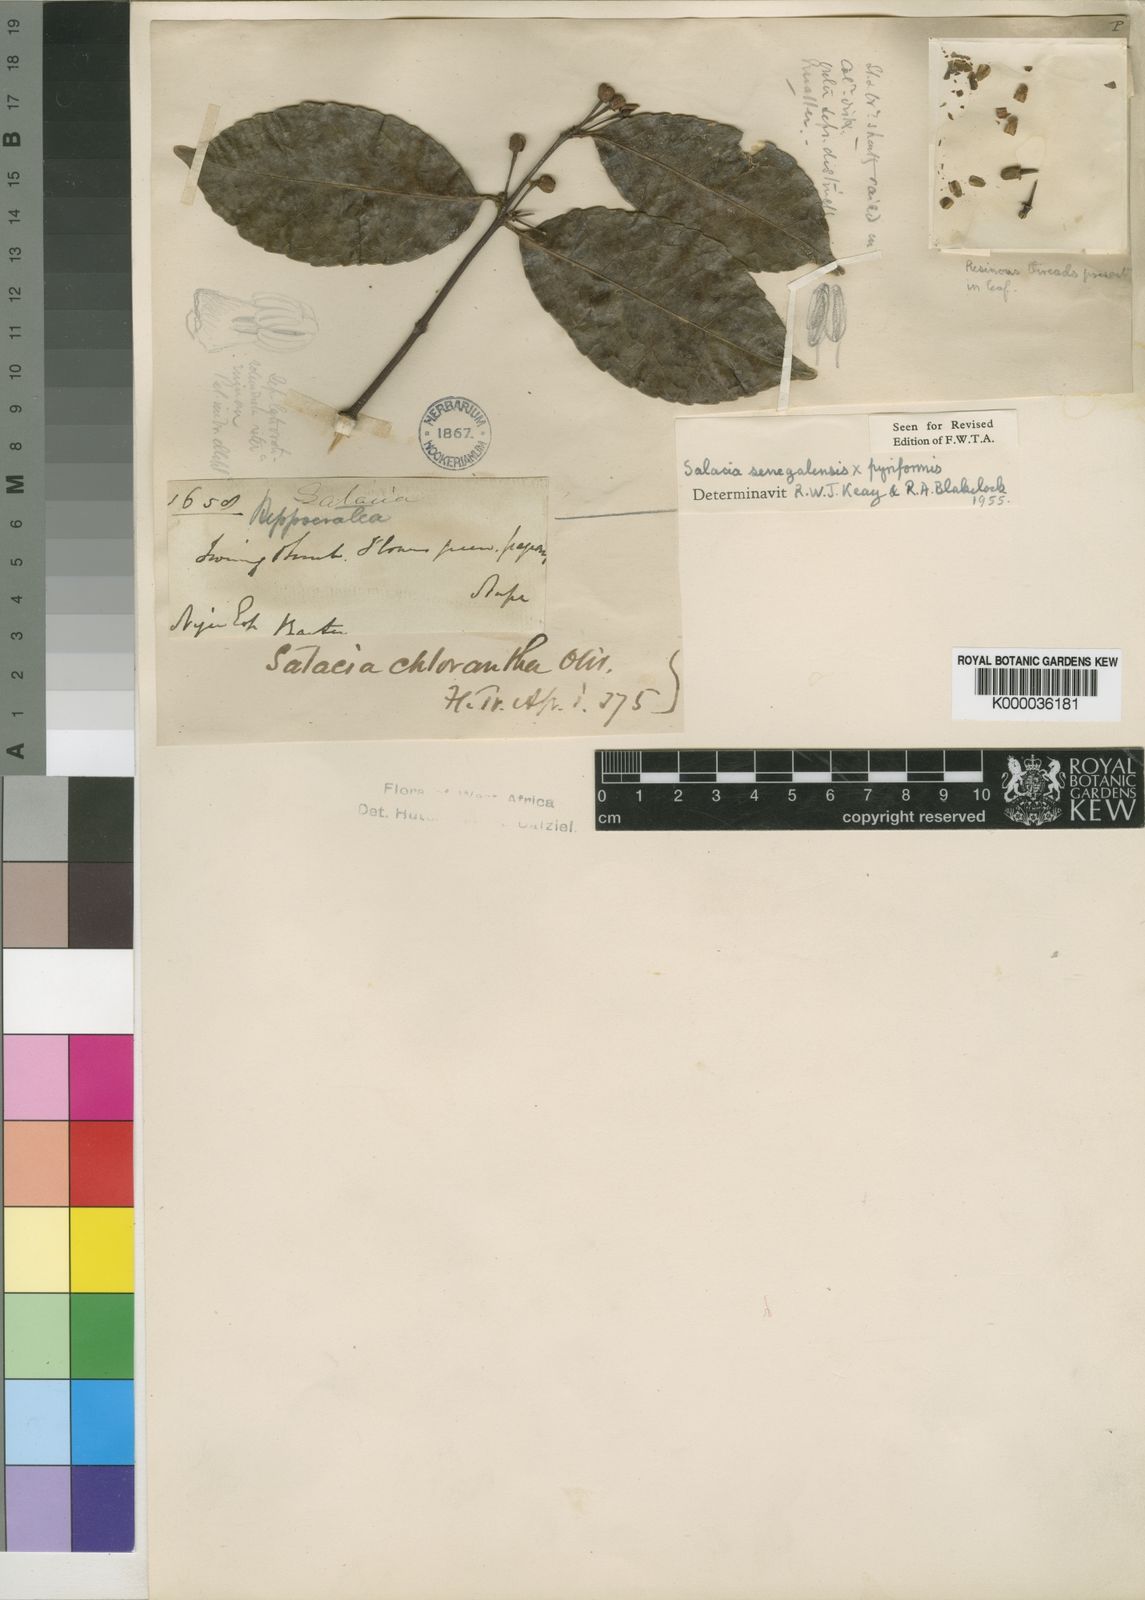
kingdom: Plantae
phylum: Tracheophyta
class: Magnoliopsida
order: Celastrales
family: Celastraceae
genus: Salacia
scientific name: Salacia senegalensis
